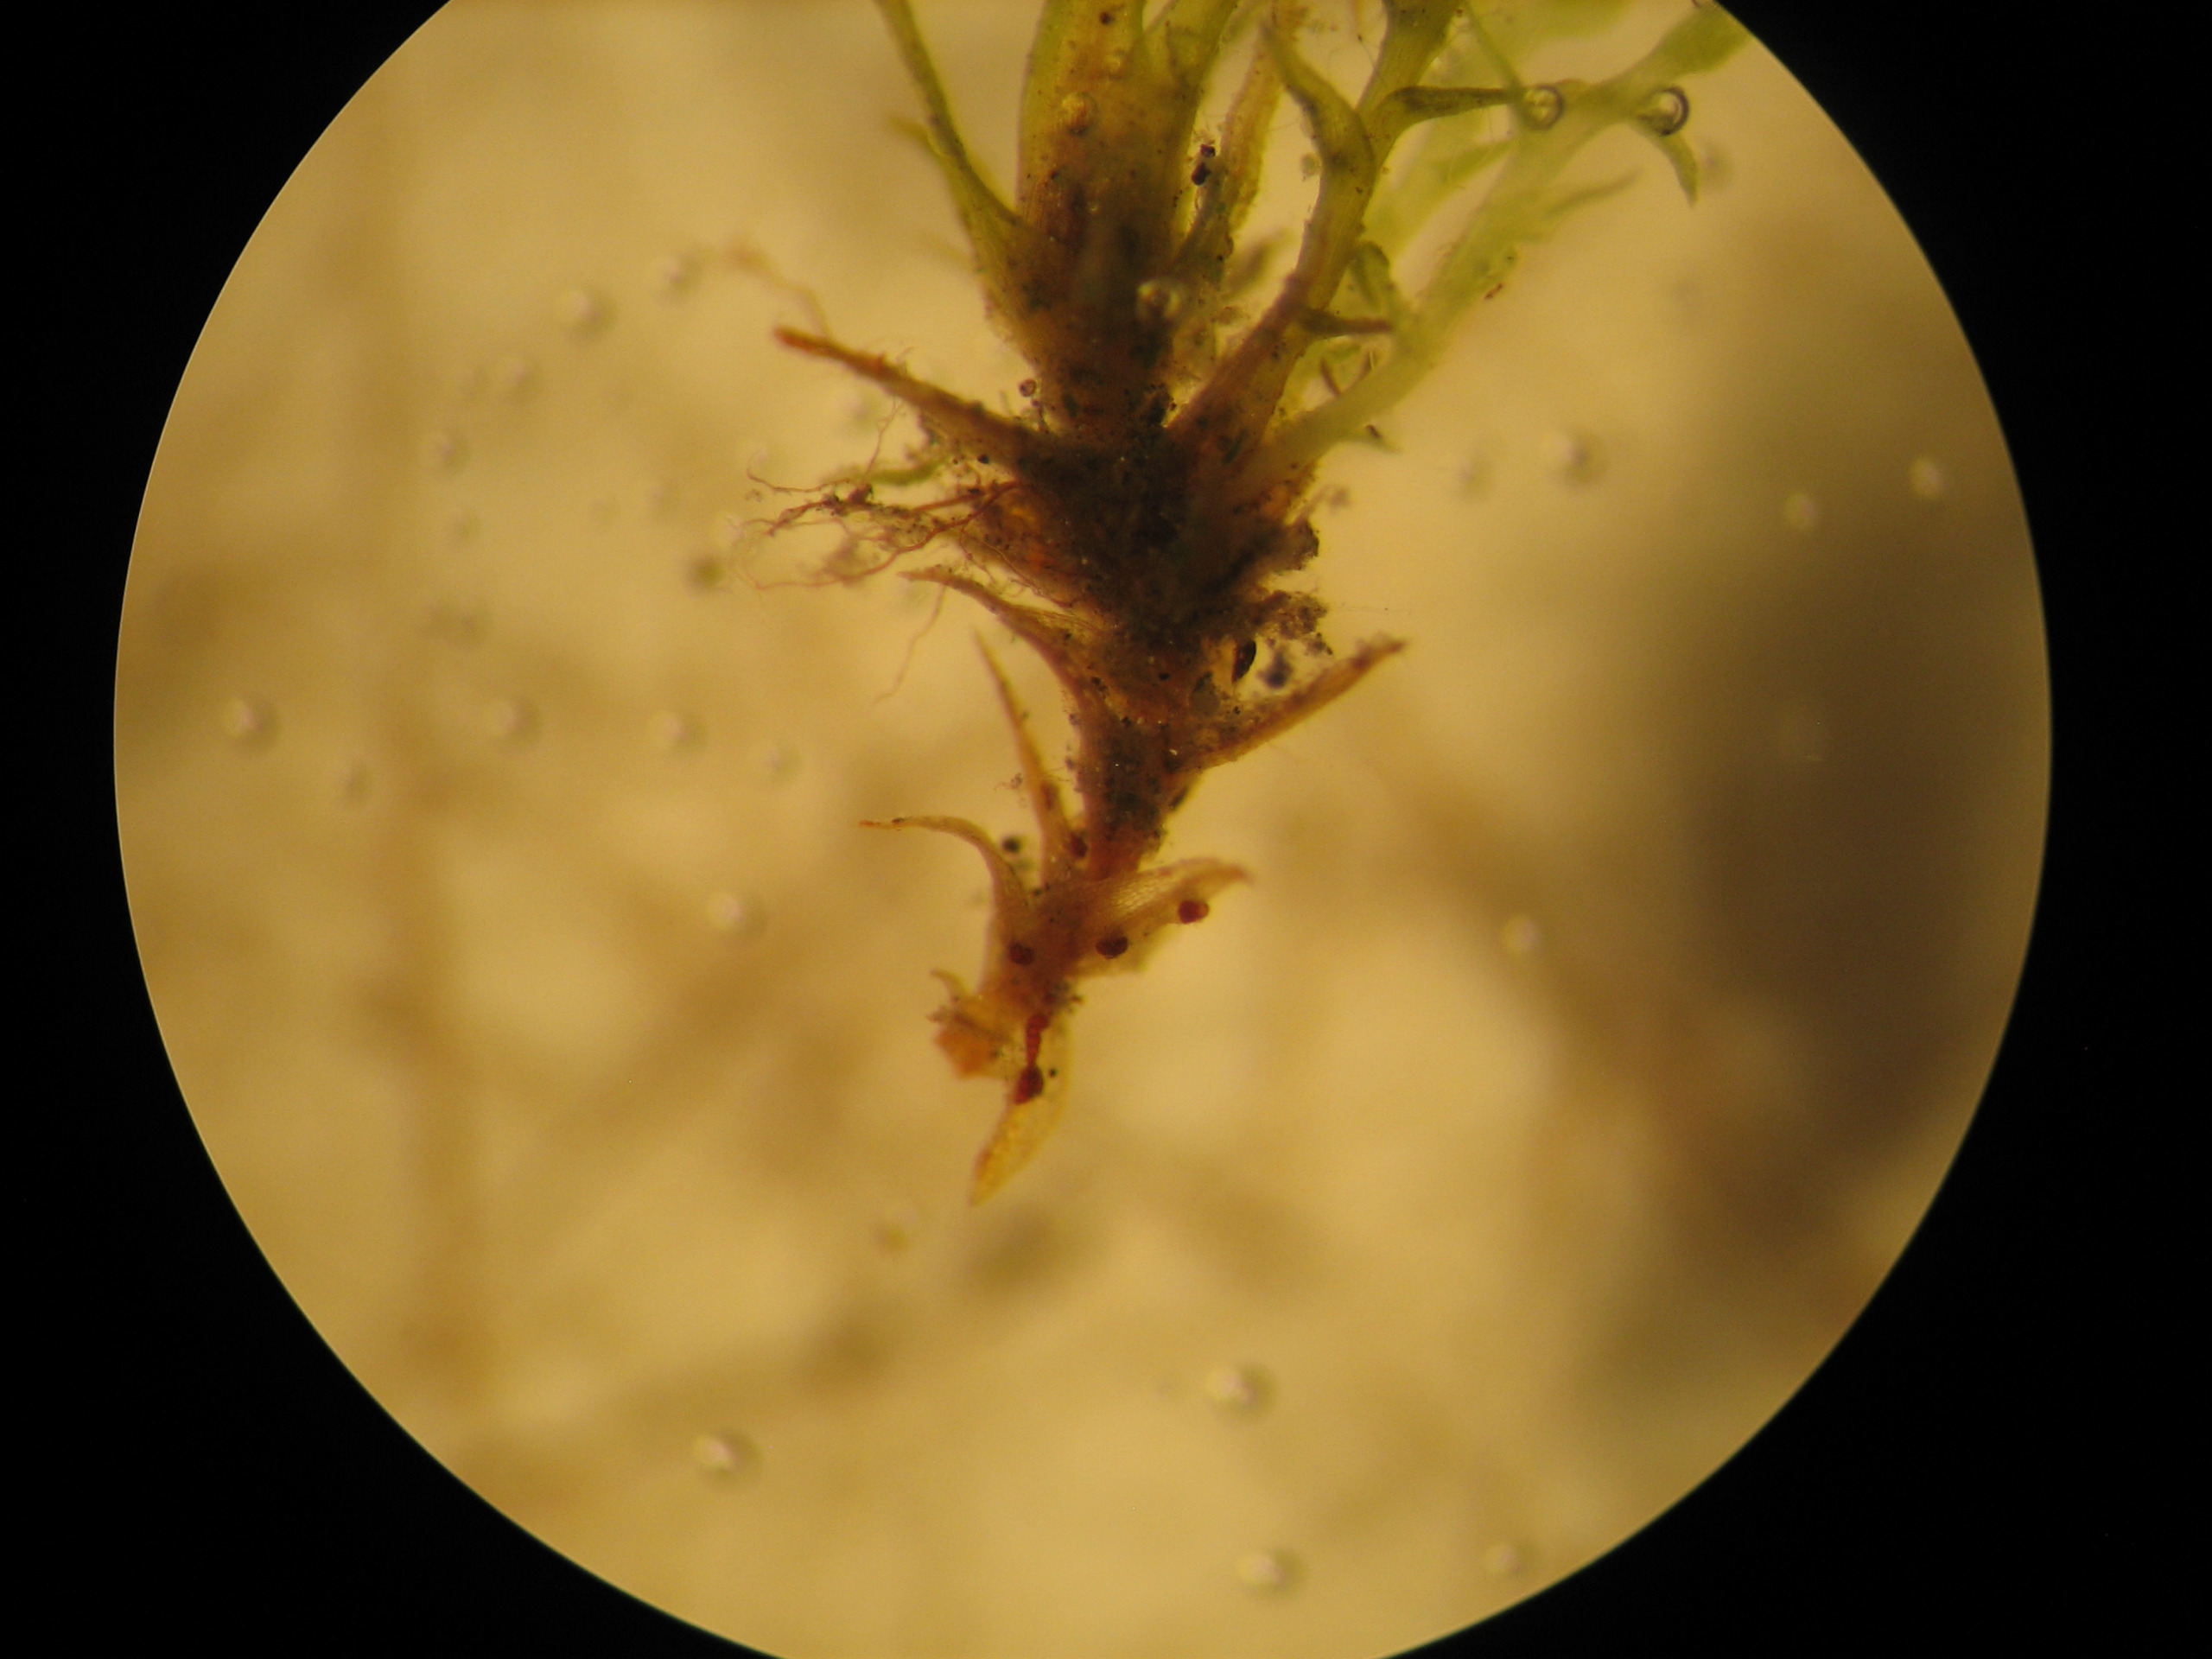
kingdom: Plantae
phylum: Bryophyta
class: Bryopsida
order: Dicranales
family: Dicranellaceae
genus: Dicranella
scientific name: Dicranella staphylina
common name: Rødknoldet skævkapsel
